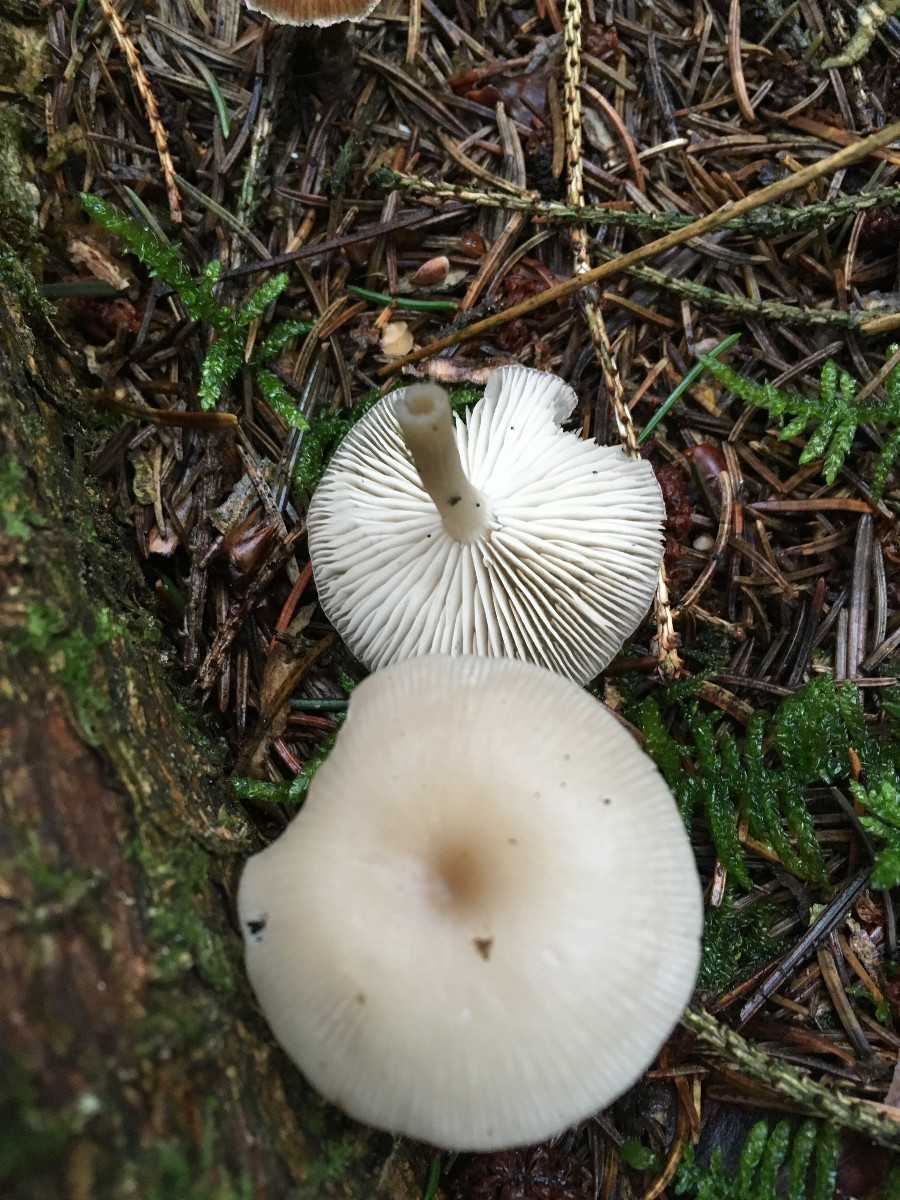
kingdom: Fungi
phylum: Basidiomycota
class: Agaricomycetes
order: Agaricales
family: Tricholomataceae
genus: Clitocybe
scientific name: Clitocybe
